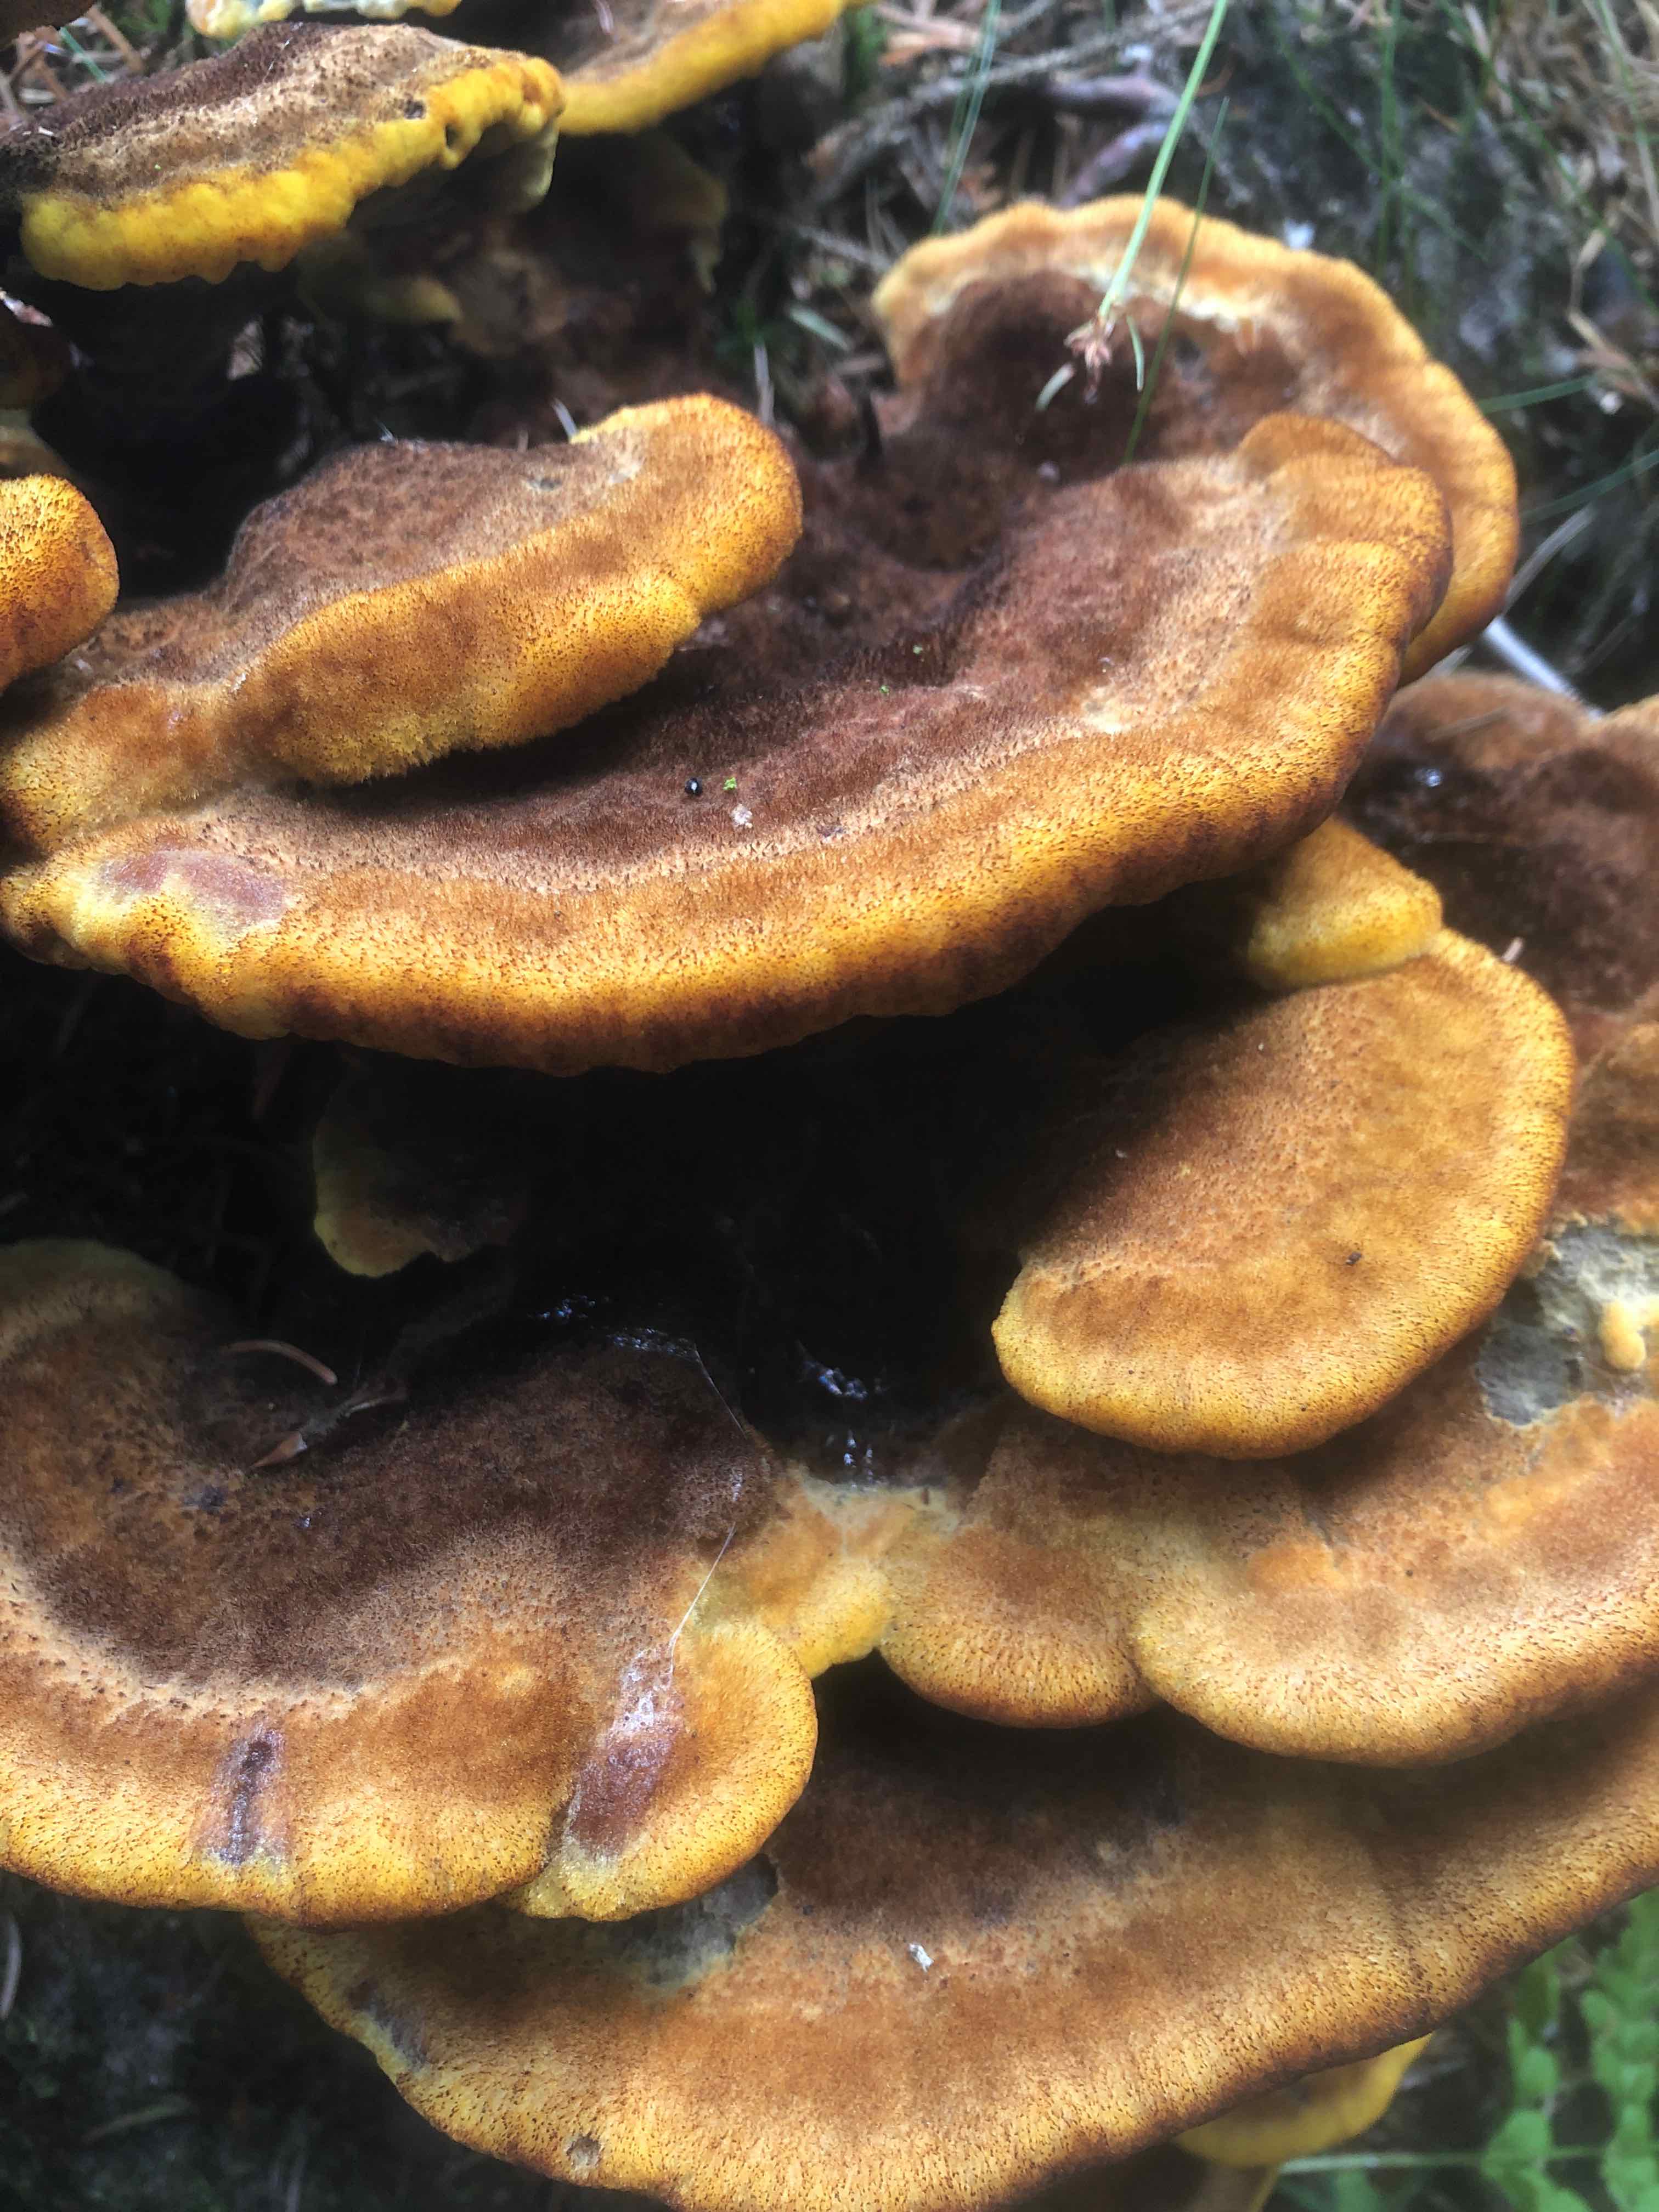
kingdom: Fungi
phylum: Basidiomycota
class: Agaricomycetes
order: Polyporales
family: Laetiporaceae
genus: Phaeolus
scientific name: Phaeolus schweinitzii
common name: brunporesvamp
